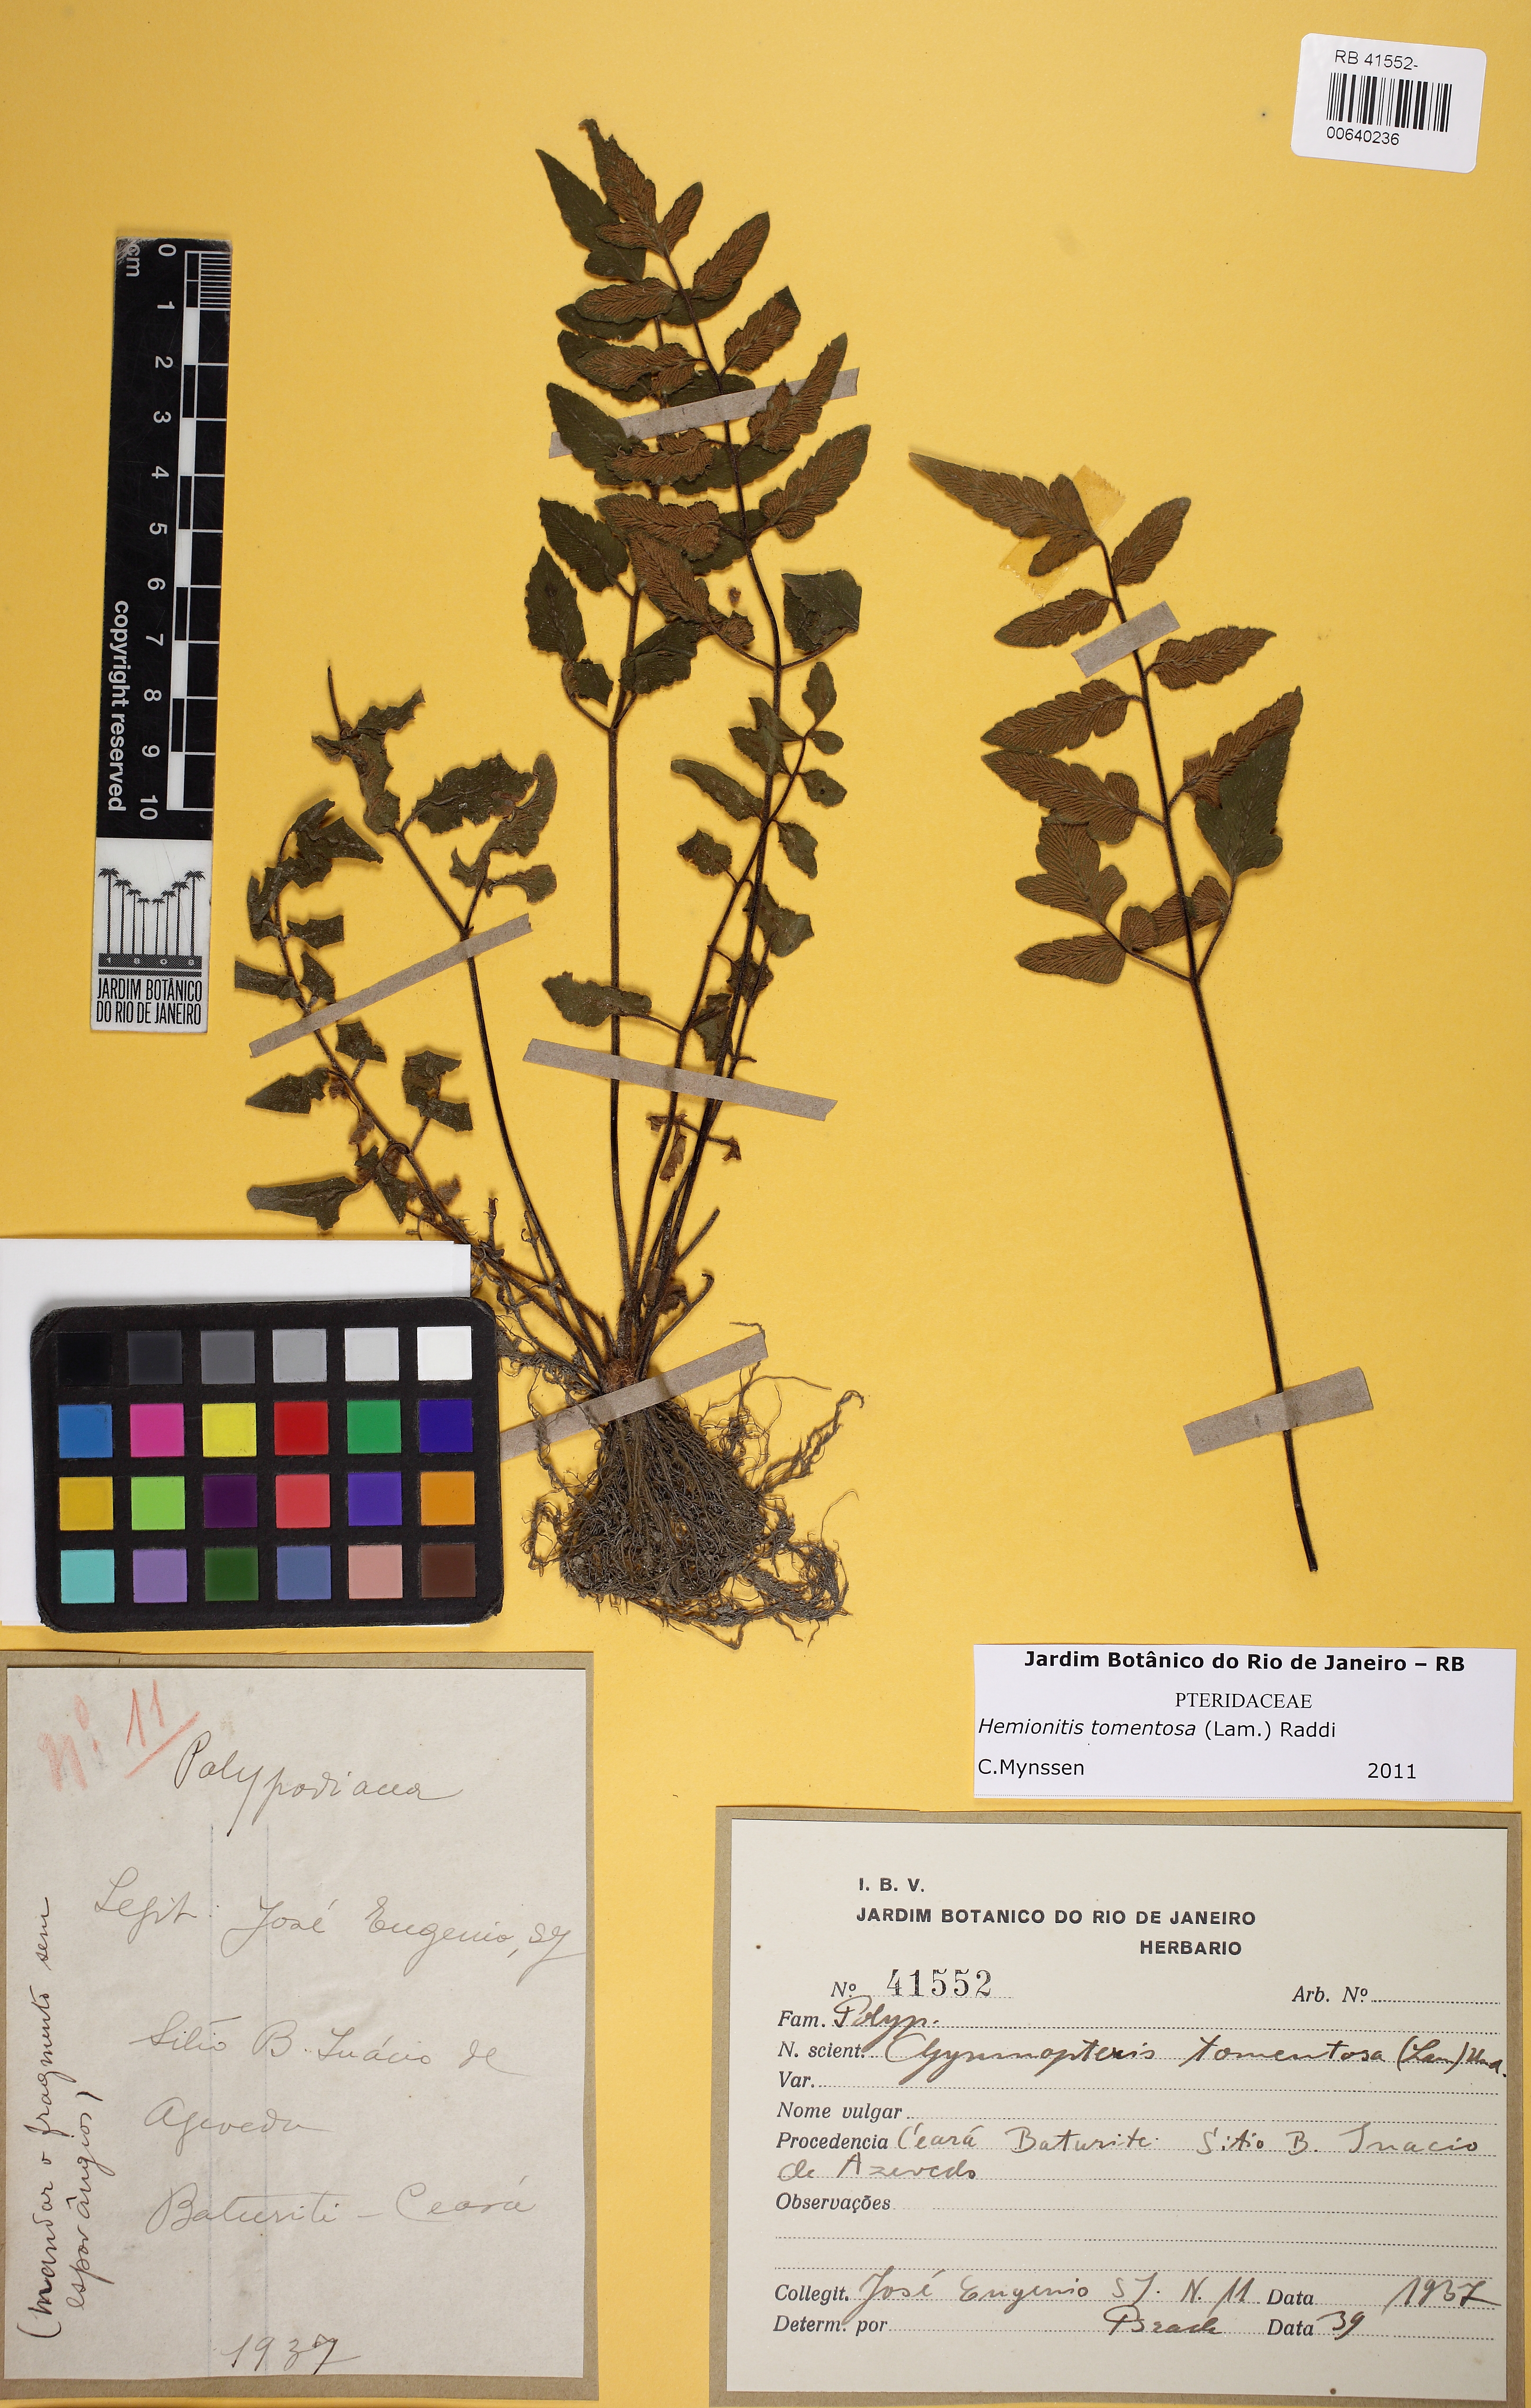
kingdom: Plantae
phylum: Tracheophyta
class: Polypodiopsida
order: Polypodiales
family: Pteridaceae
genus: Hemionitis
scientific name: Hemionitis tomentosa
